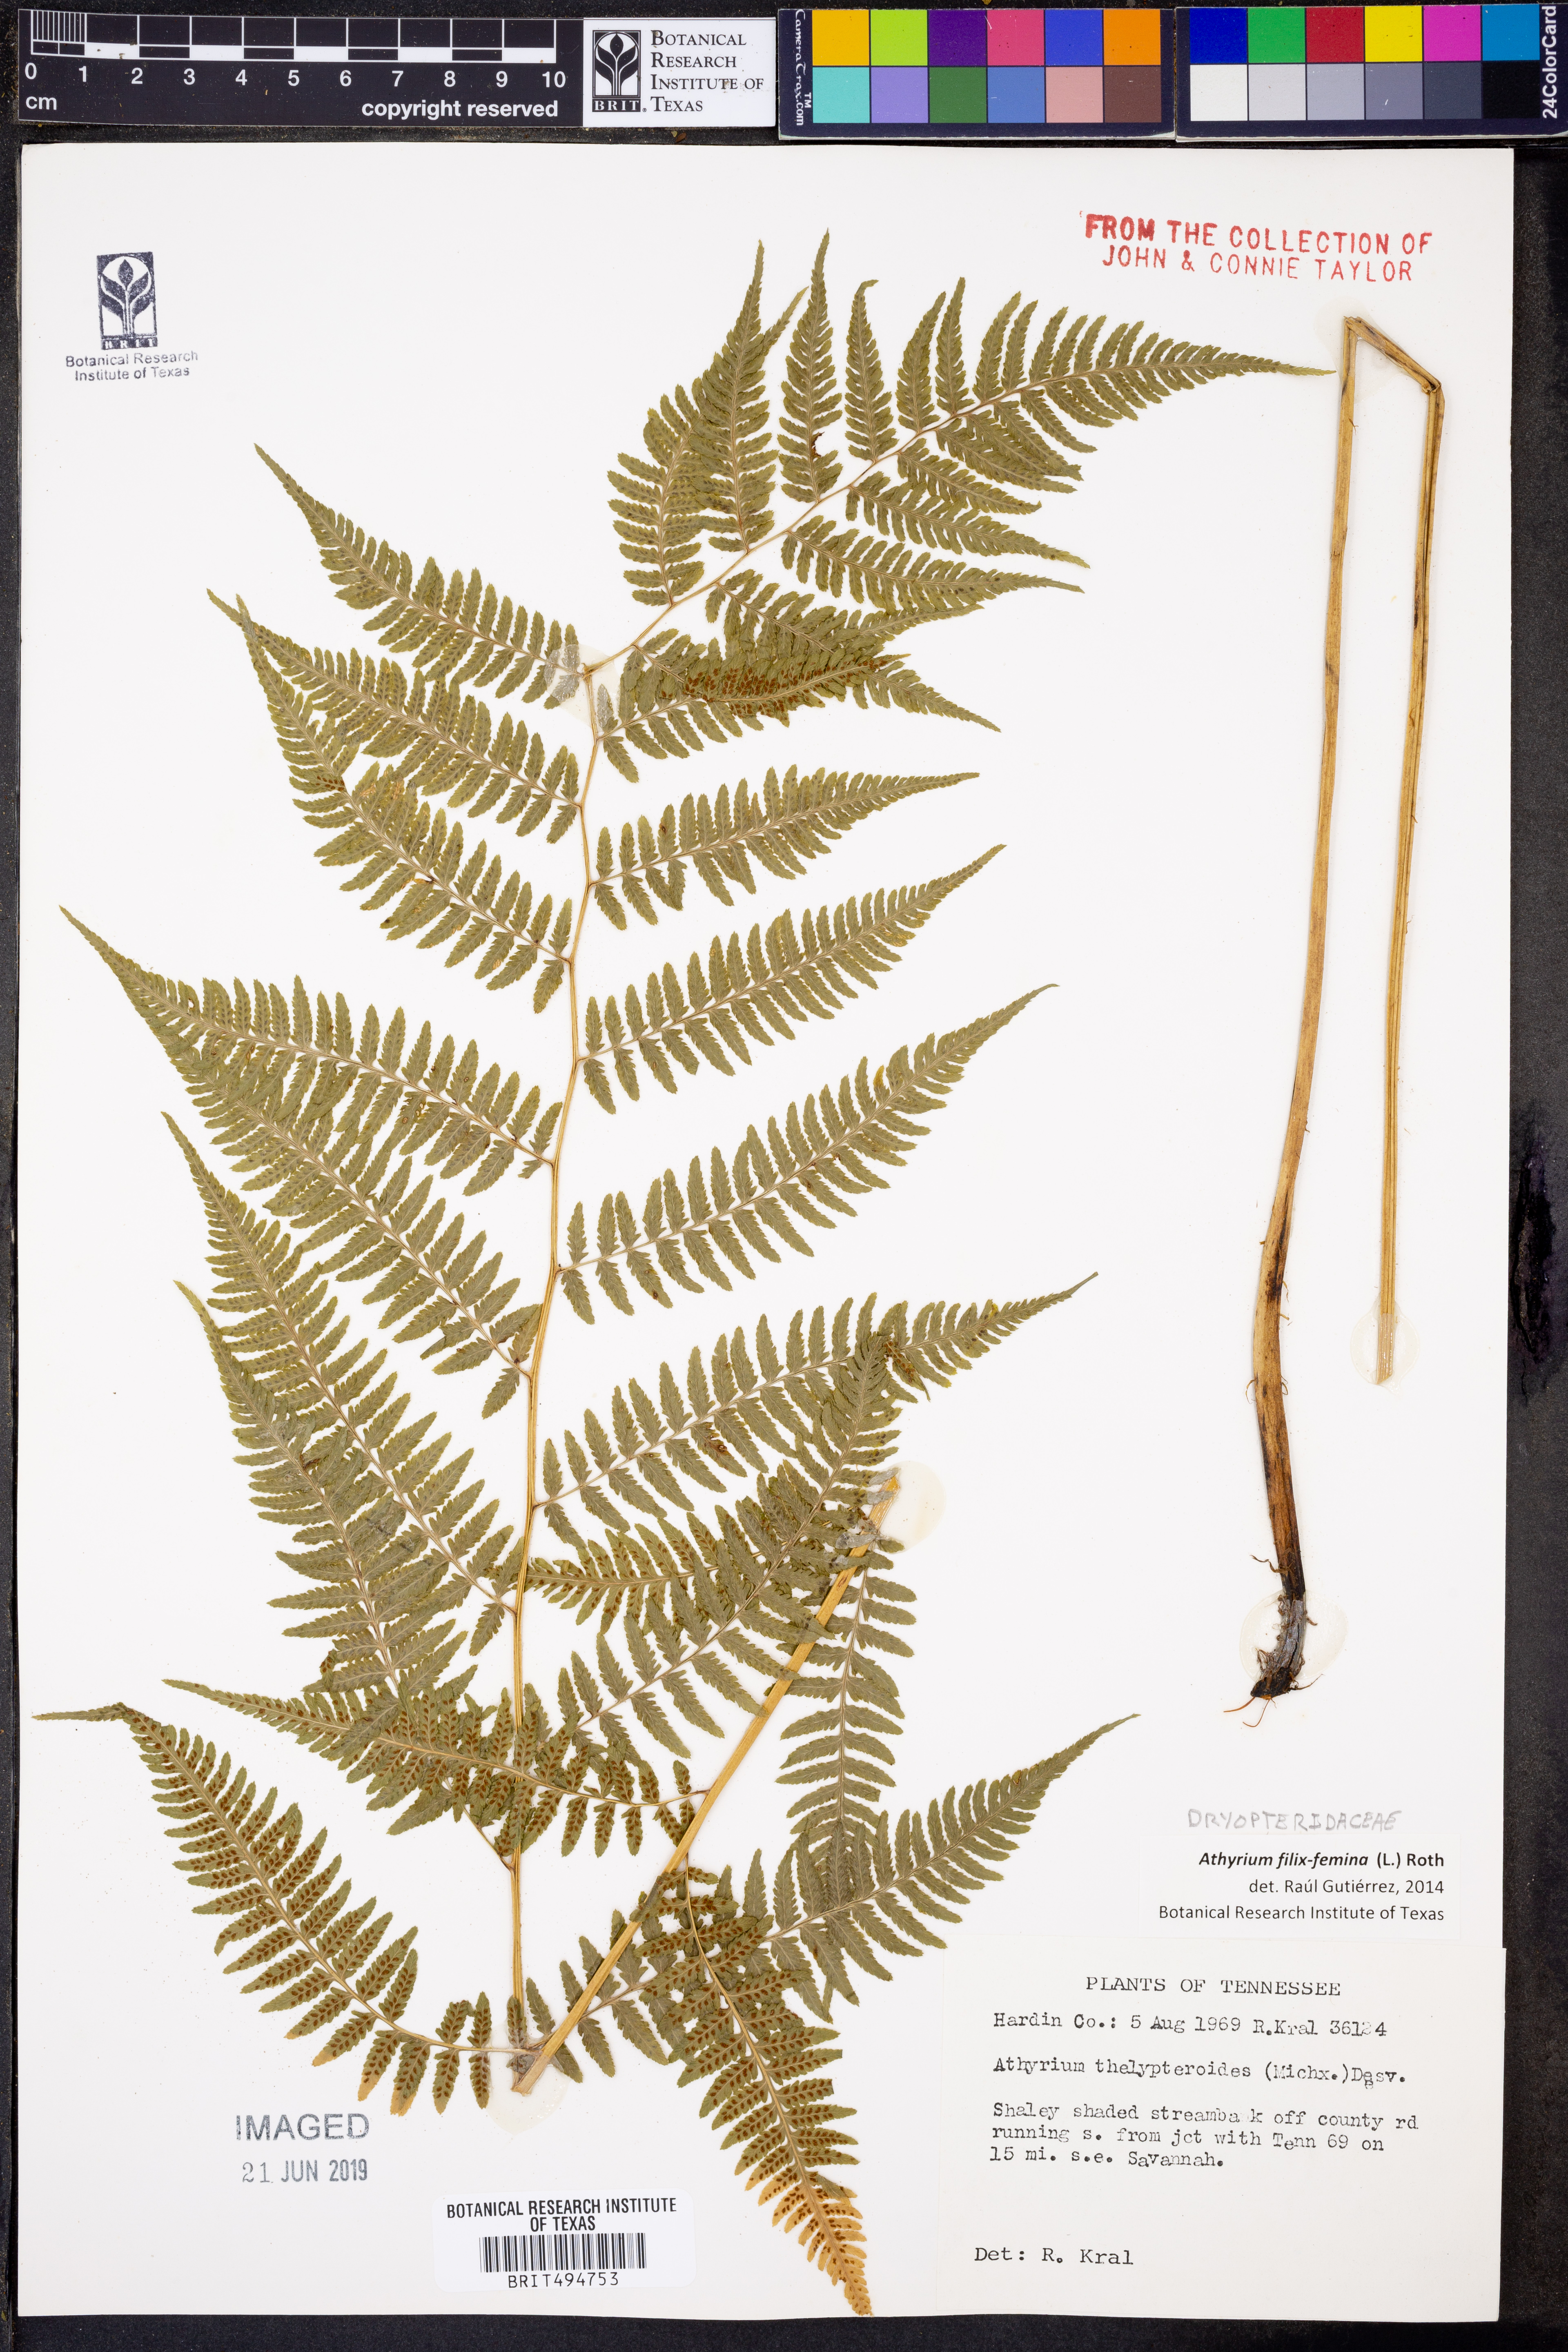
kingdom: Plantae
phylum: Tracheophyta
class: Polypodiopsida
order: Polypodiales
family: Athyriaceae
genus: Athyrium
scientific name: Athyrium filix-femina
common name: Lady fern
